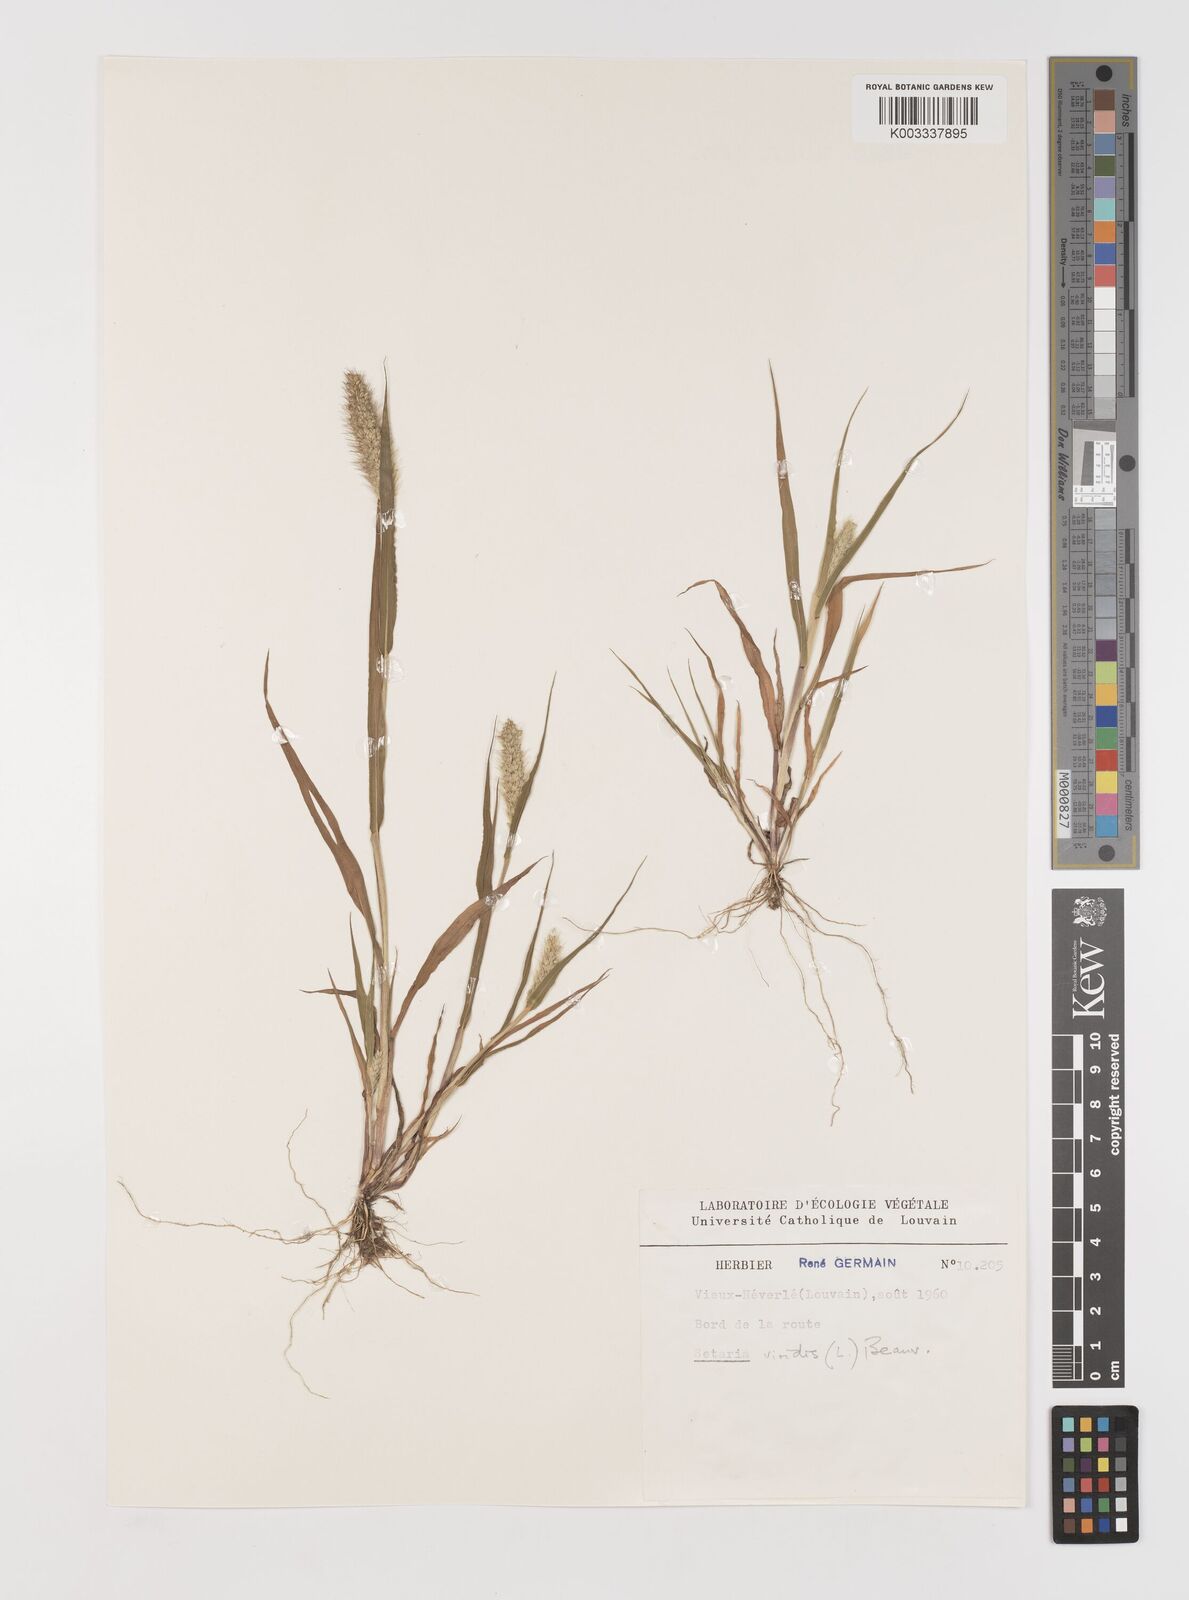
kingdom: Plantae
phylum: Tracheophyta
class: Liliopsida
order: Poales
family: Poaceae
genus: Setaria
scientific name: Setaria viridis
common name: Green bristlegrass
